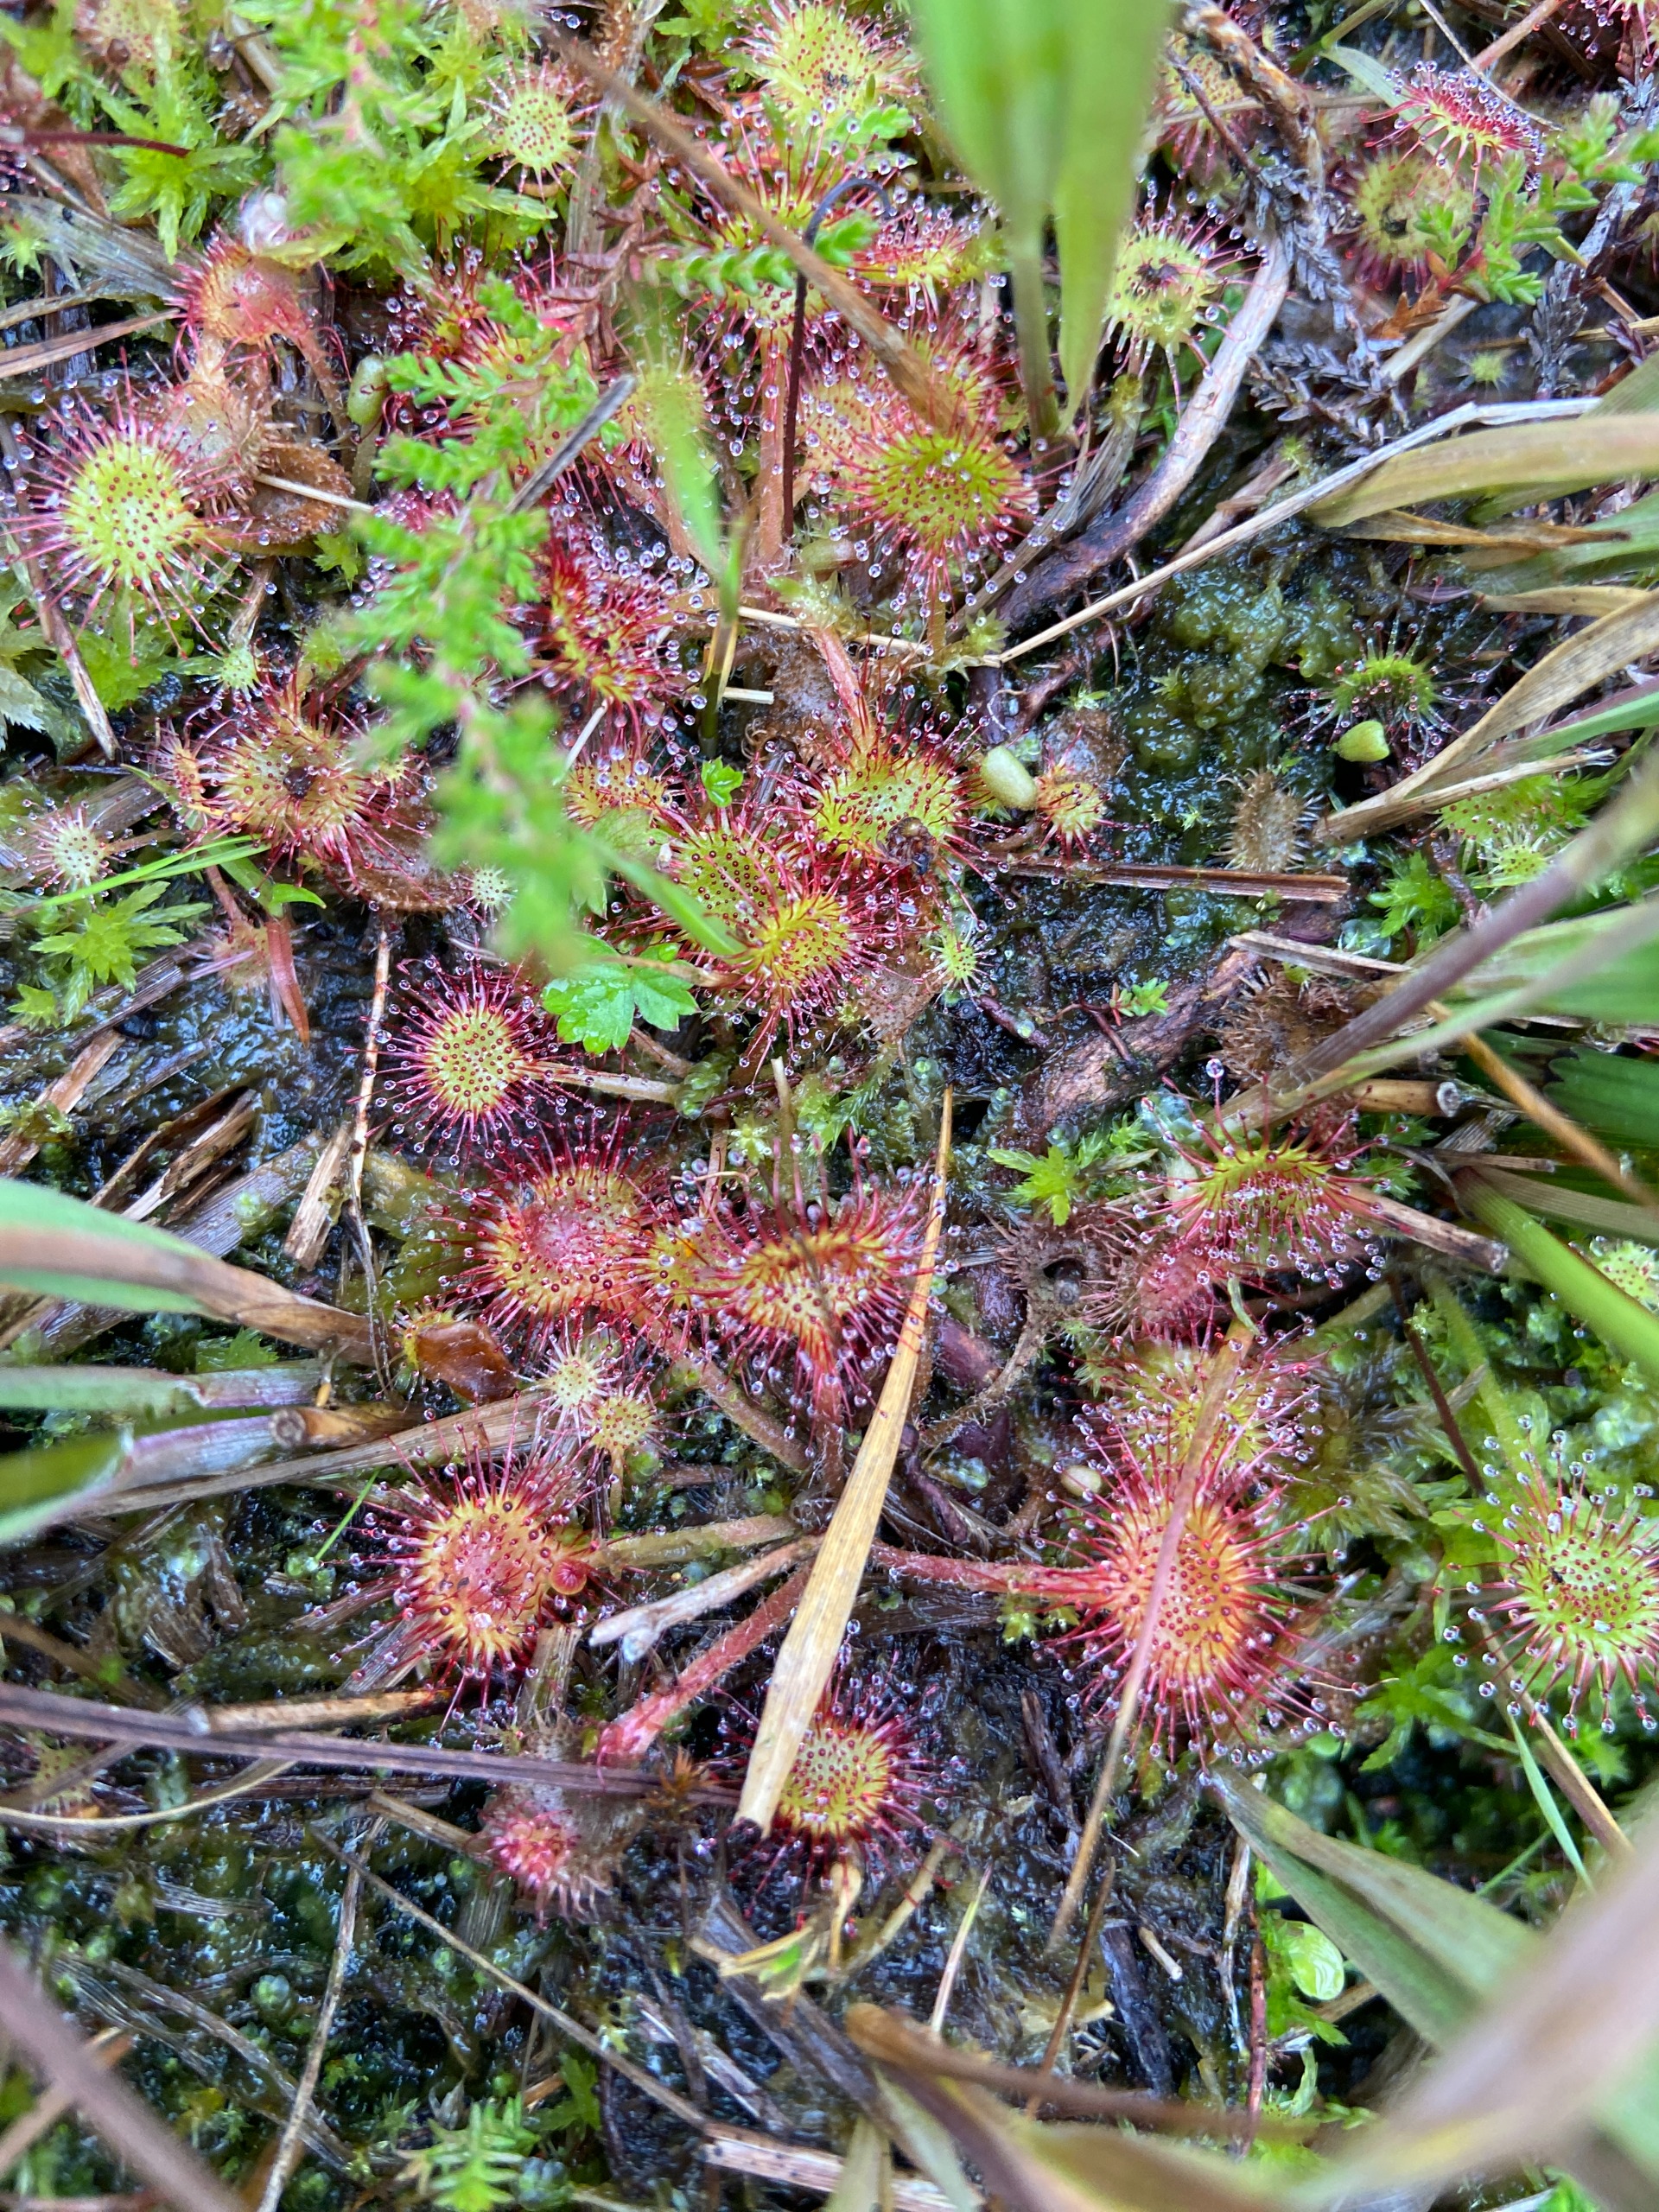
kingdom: Plantae
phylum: Tracheophyta
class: Magnoliopsida
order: Caryophyllales
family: Droseraceae
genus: Drosera
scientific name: Drosera rotundifolia
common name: Rundbladet soldug
